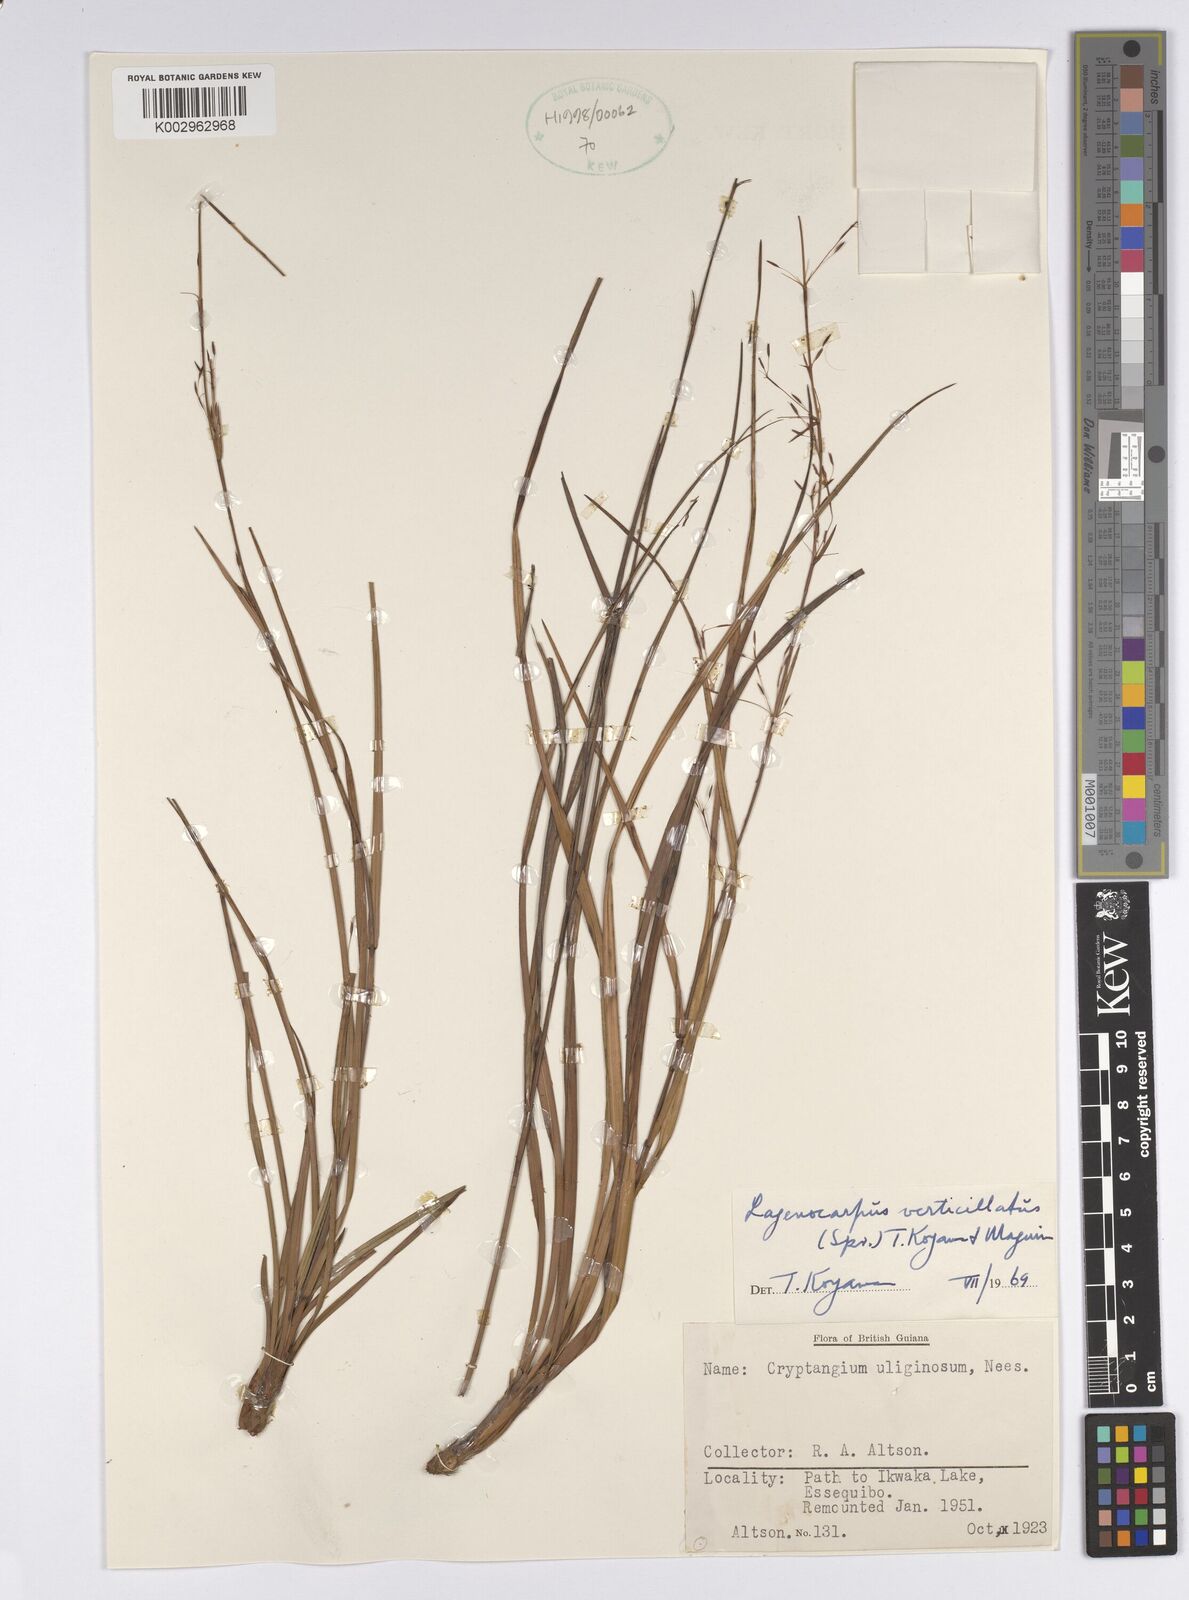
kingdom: Plantae
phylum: Tracheophyta
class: Liliopsida
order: Poales
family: Cyperaceae
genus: Cryptangium
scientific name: Cryptangium verticillatum
